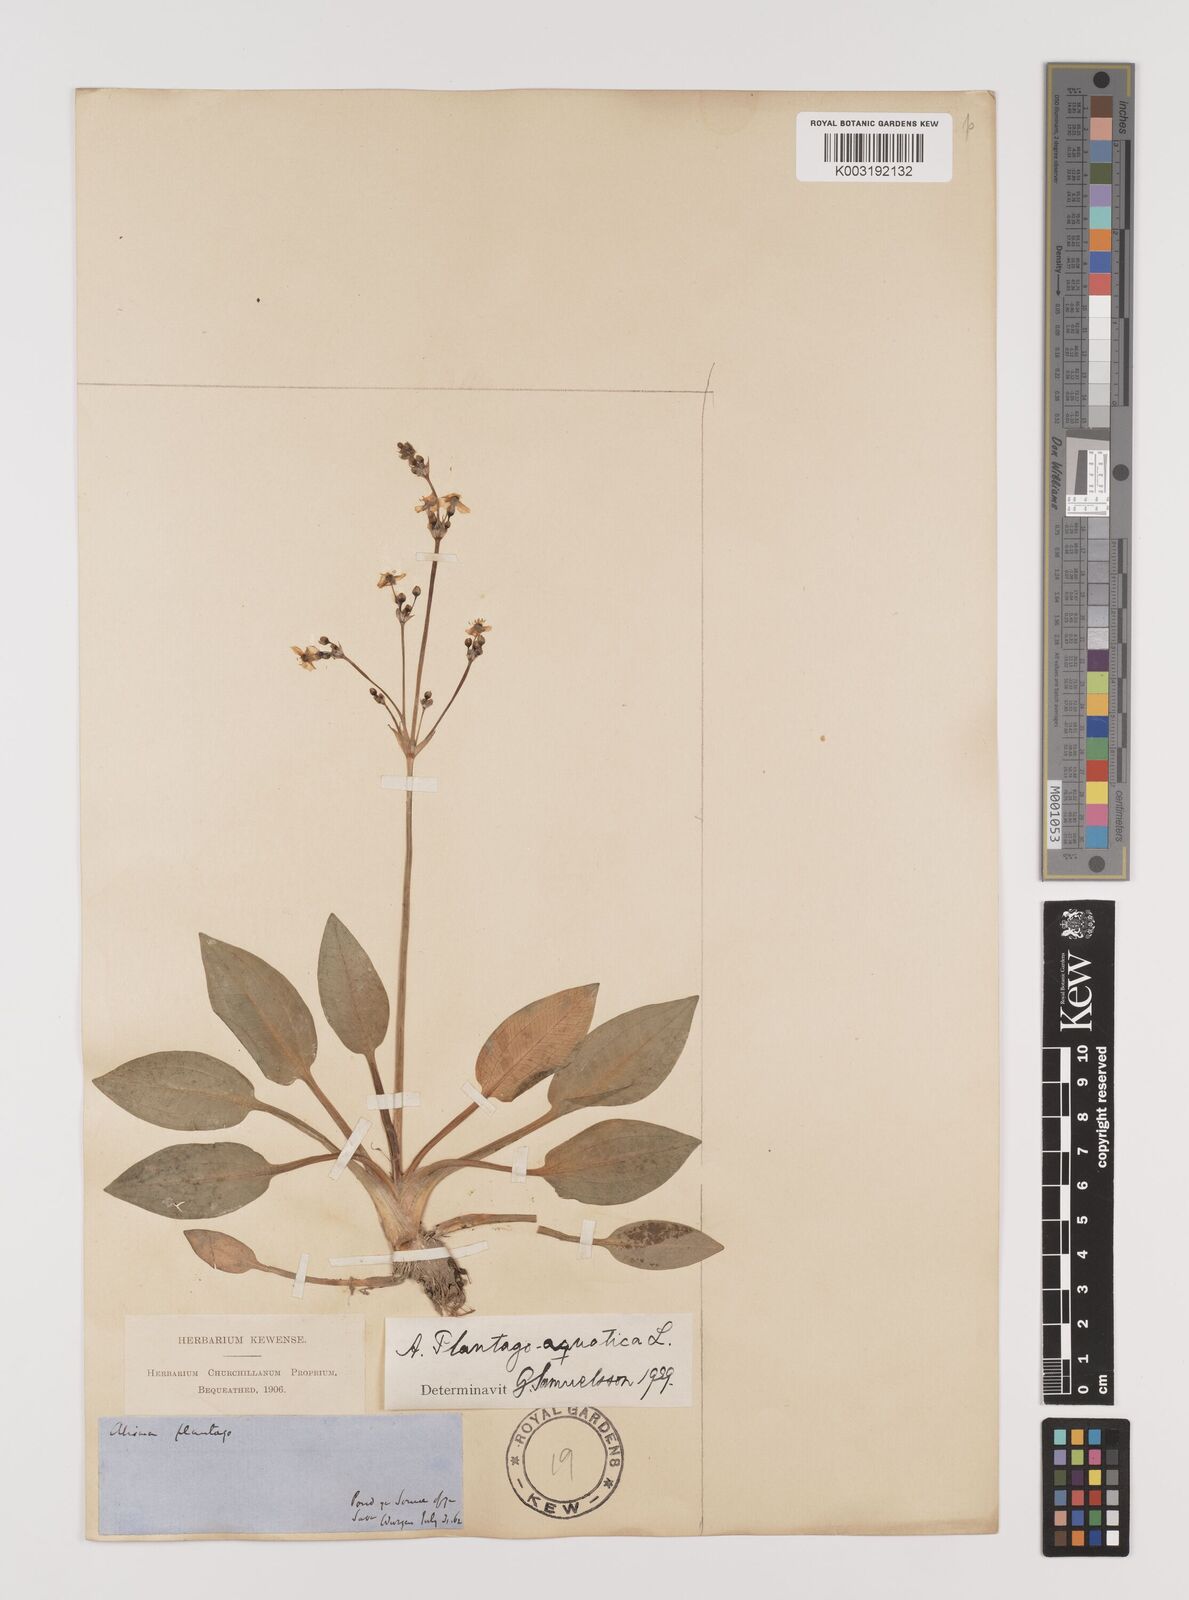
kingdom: Plantae
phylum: Tracheophyta
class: Liliopsida
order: Alismatales
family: Alismataceae
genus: Alisma
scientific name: Alisma plantago-aquatica
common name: Water-plantain
